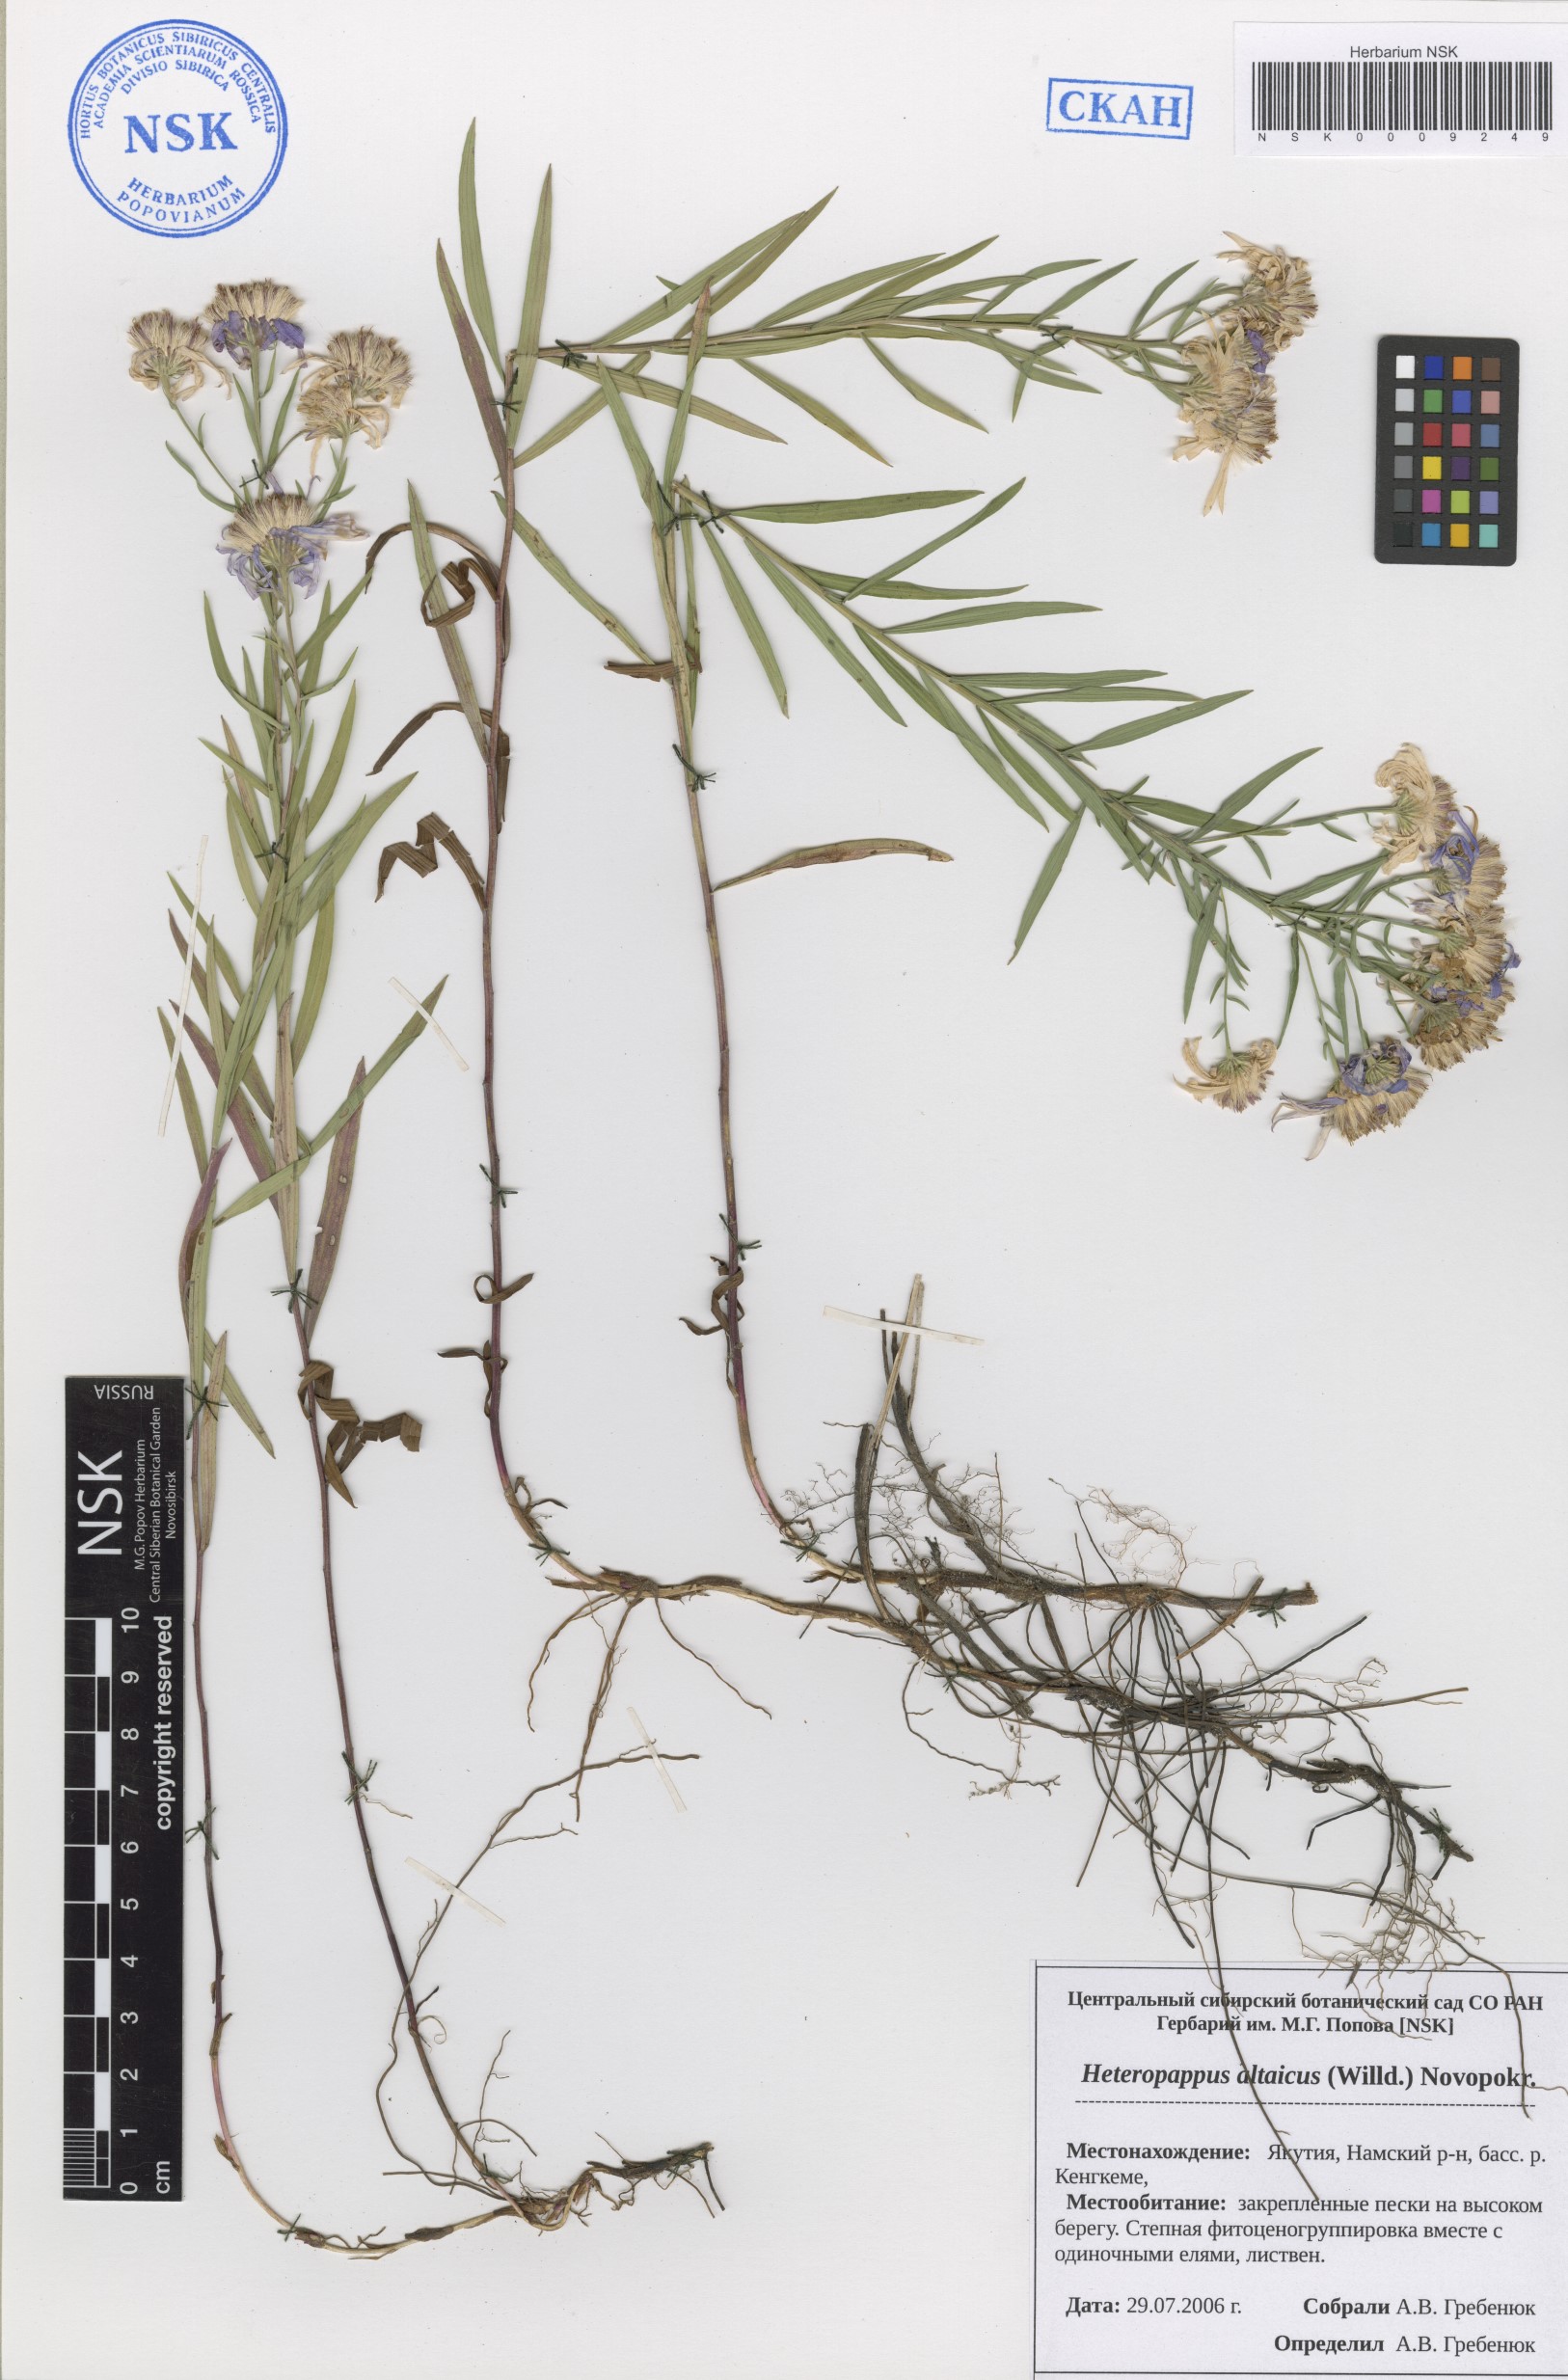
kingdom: Plantae
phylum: Tracheophyta
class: Magnoliopsida
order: Asterales
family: Asteraceae
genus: Heteropappus
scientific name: Heteropappus altaicus
